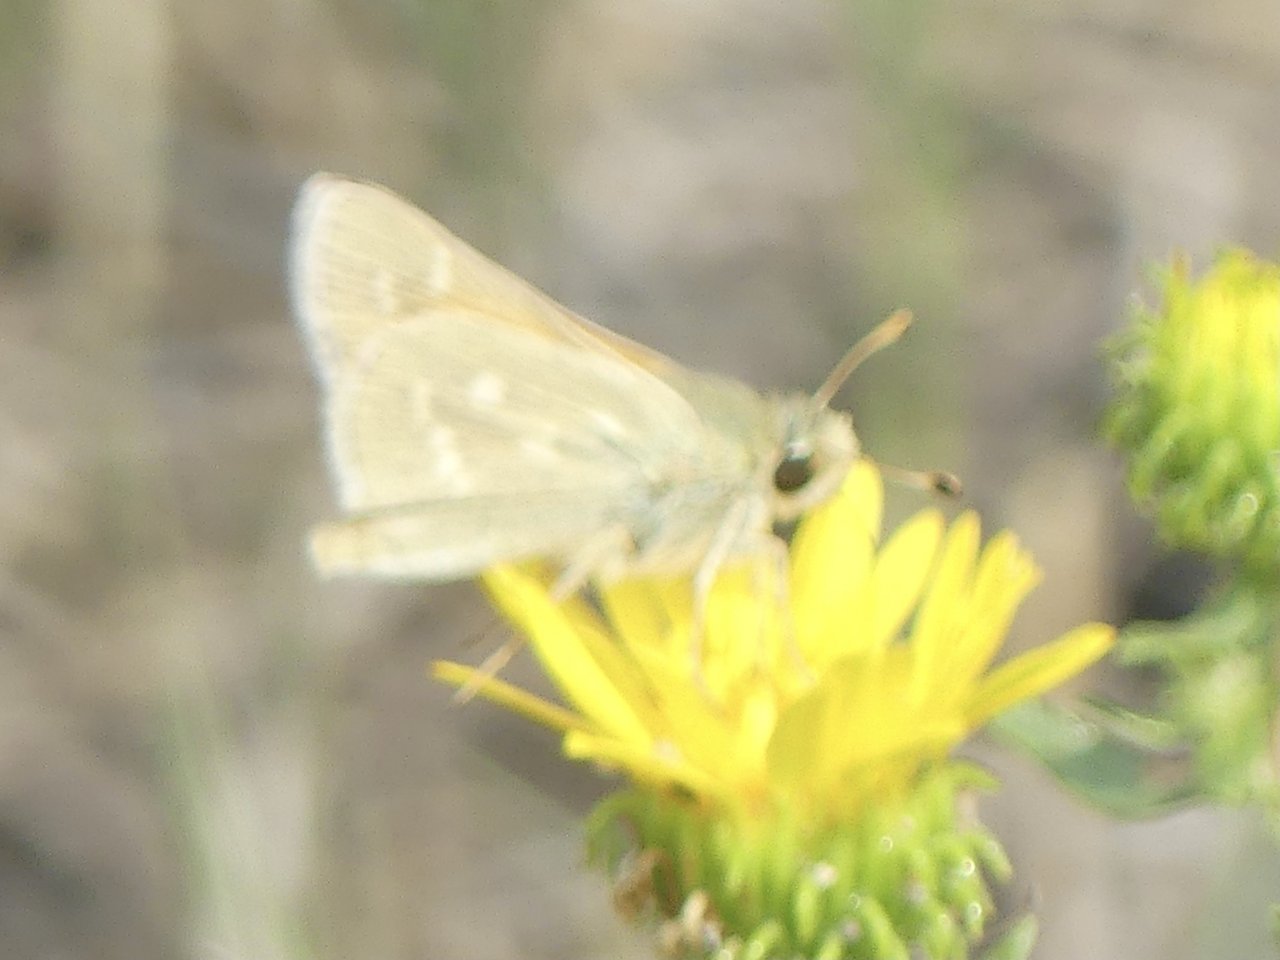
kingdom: Animalia
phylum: Arthropoda
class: Insecta
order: Lepidoptera
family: Hesperiidae
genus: Hesperia
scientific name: Hesperia comma
